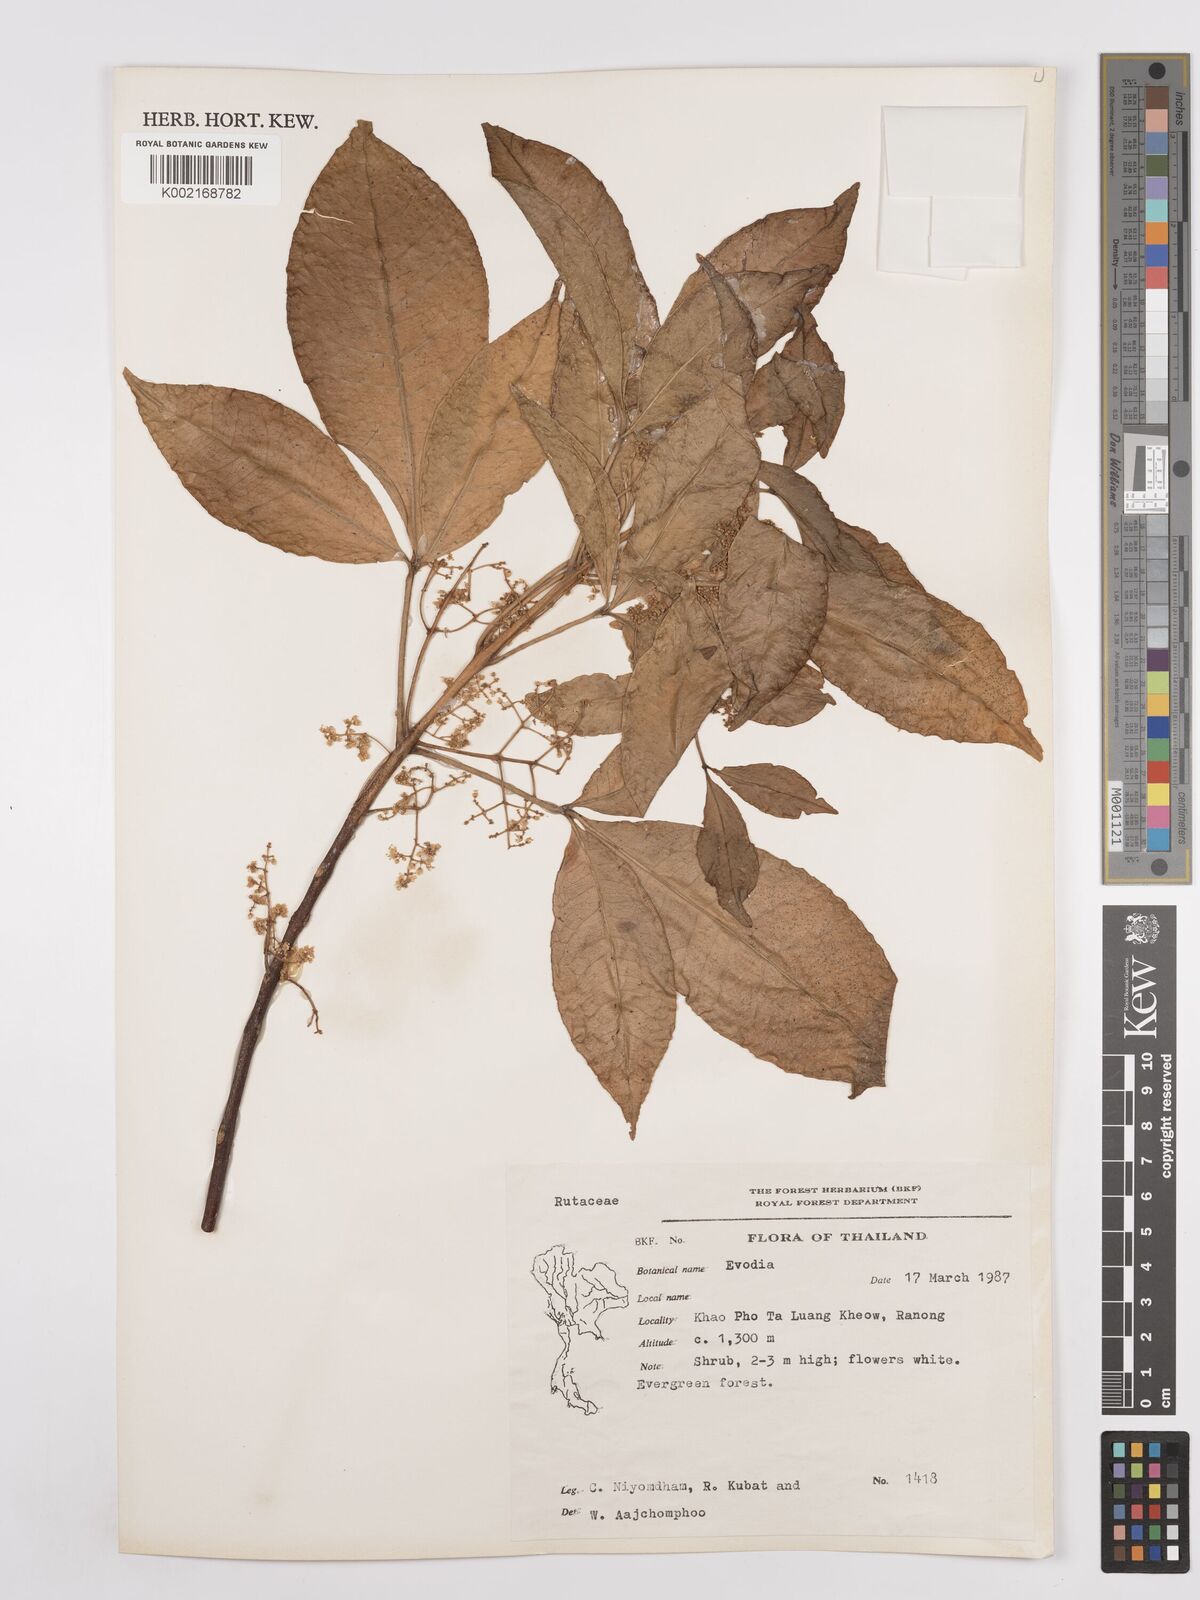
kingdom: Plantae
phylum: Tracheophyta
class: Magnoliopsida
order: Sapindales
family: Rutaceae
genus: Euodia
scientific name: Euodia
